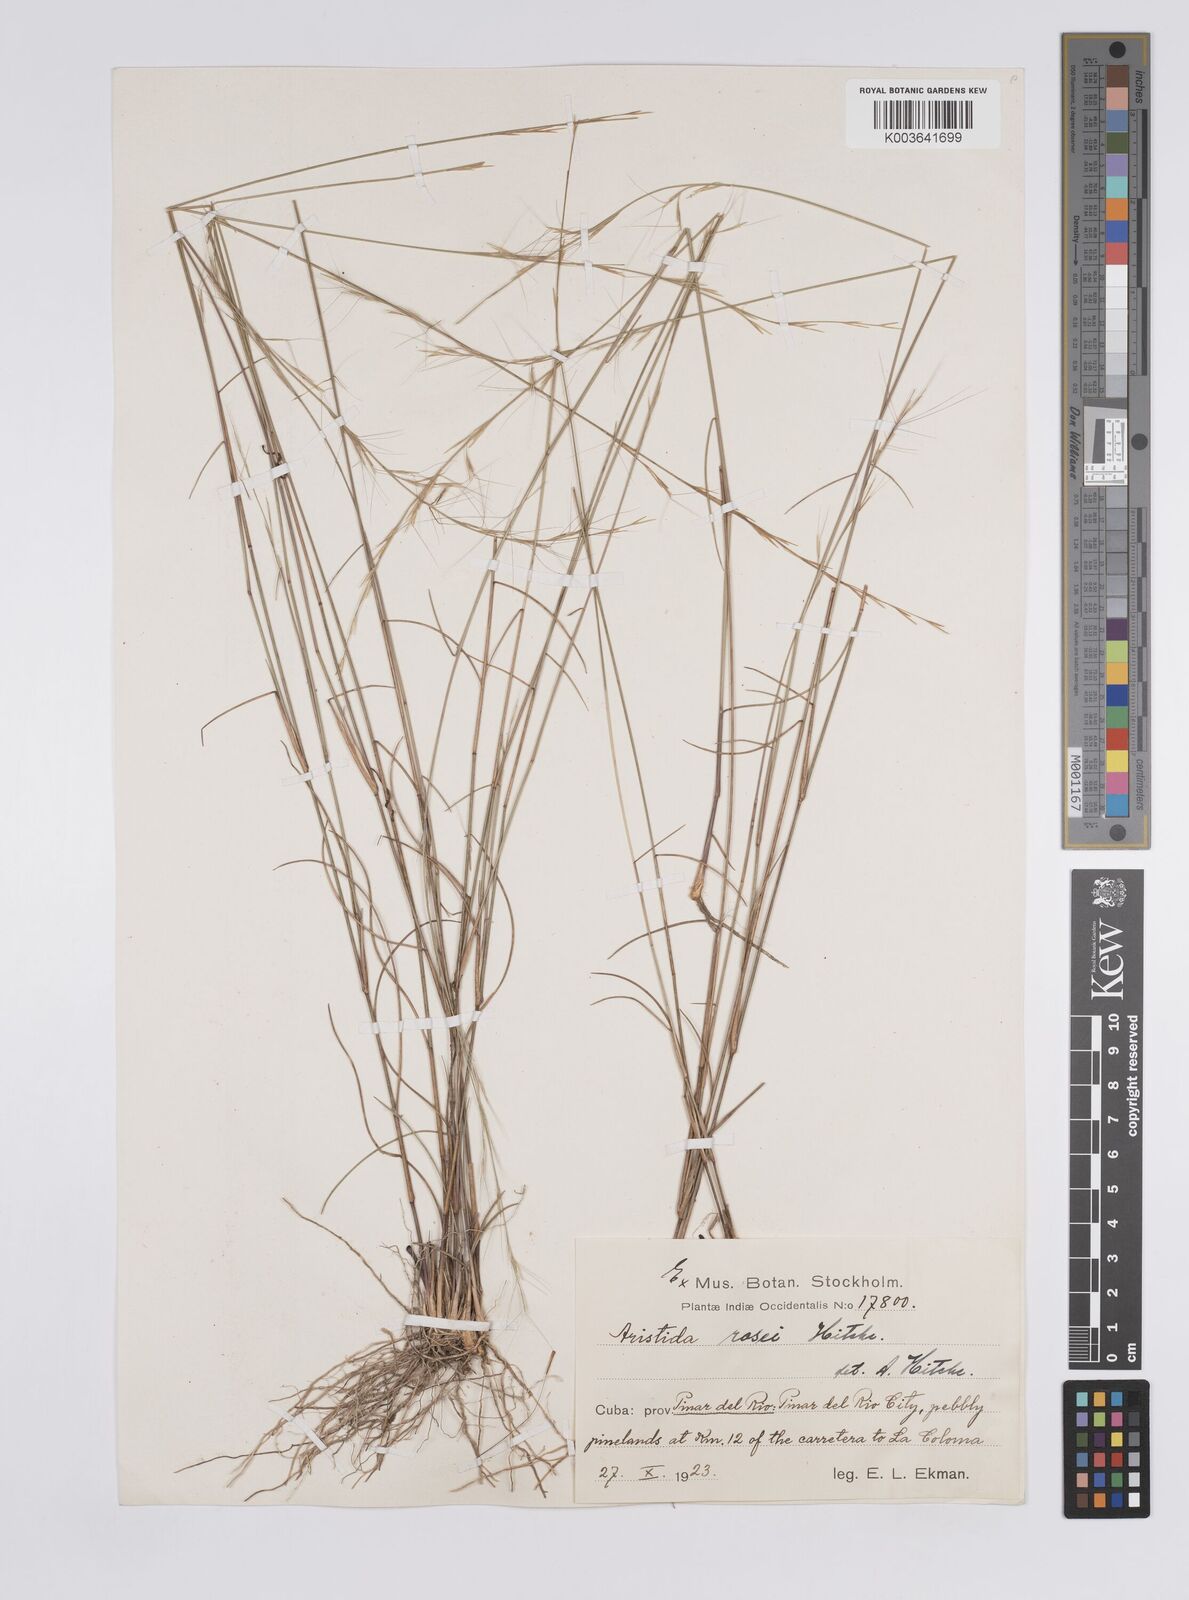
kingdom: Plantae
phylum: Tracheophyta
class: Liliopsida
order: Poales
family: Poaceae
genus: Aristida
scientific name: Aristida rosei
